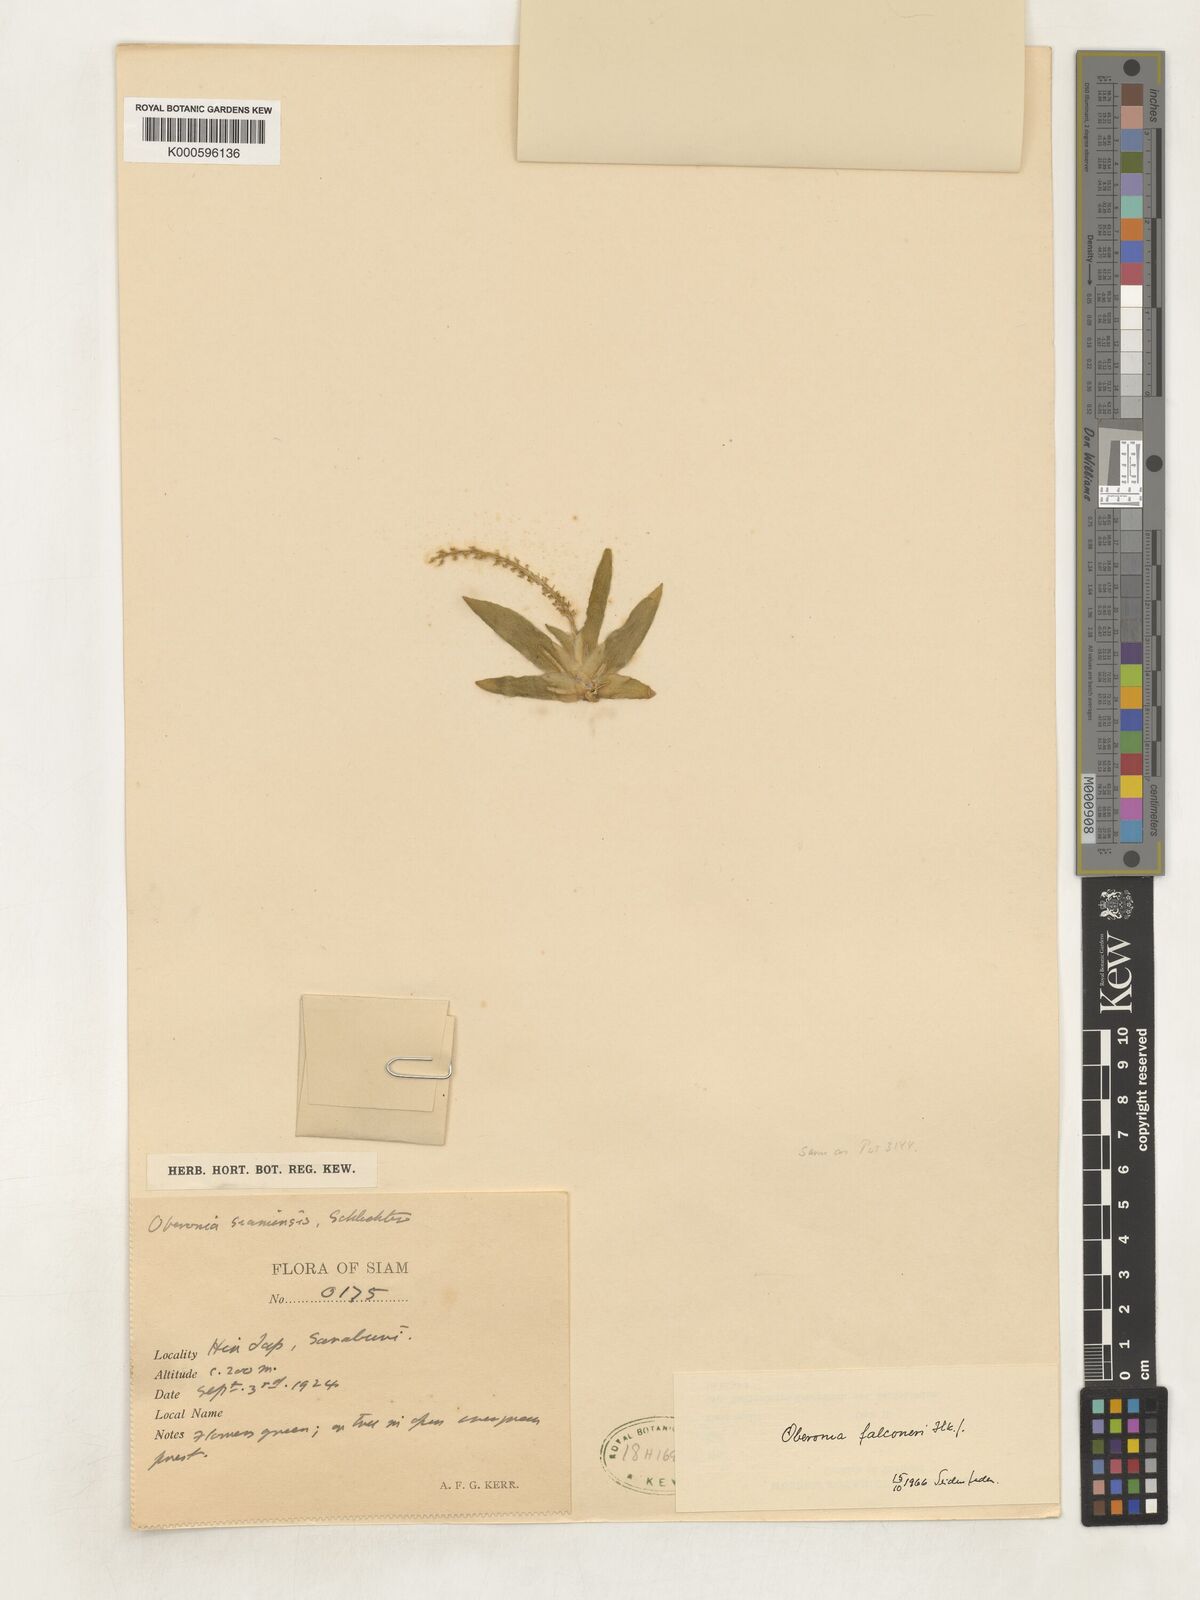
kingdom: Plantae
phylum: Tracheophyta
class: Liliopsida
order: Asparagales
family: Orchidaceae
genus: Oberonia
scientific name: Oberonia falconeri
